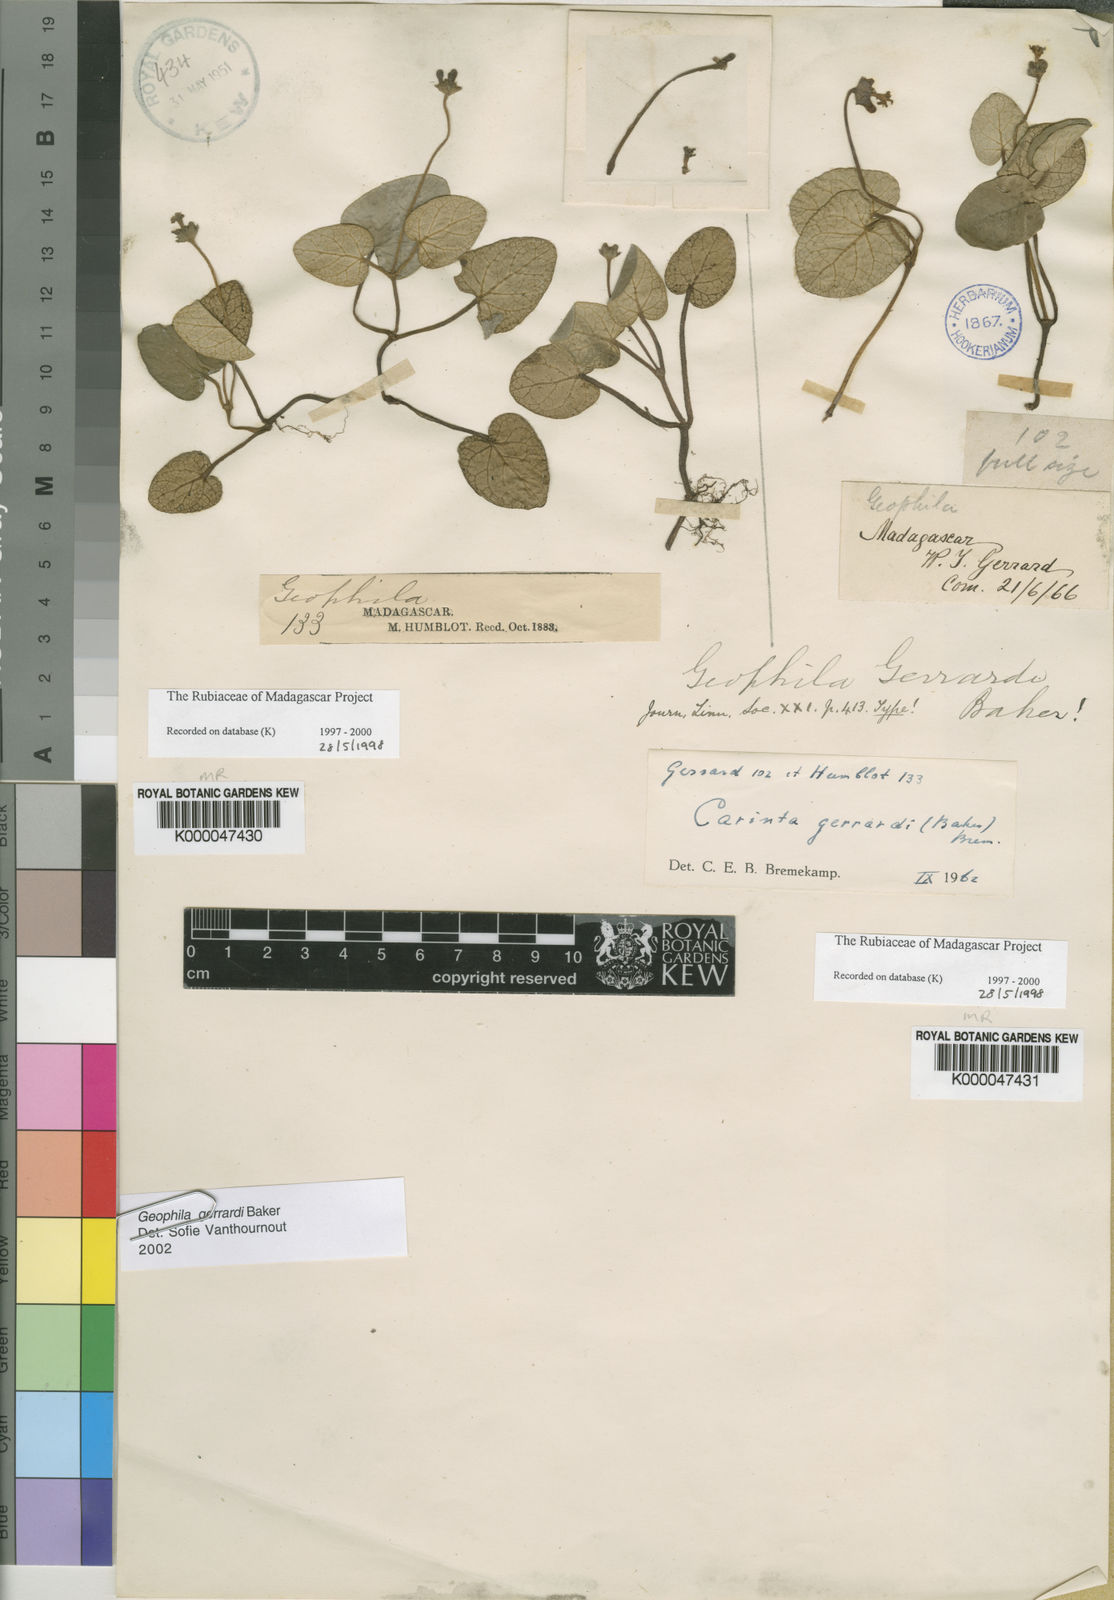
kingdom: Plantae
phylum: Tracheophyta
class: Magnoliopsida
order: Gentianales
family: Rubiaceae
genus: Puffia
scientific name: Puffia gerrardii
